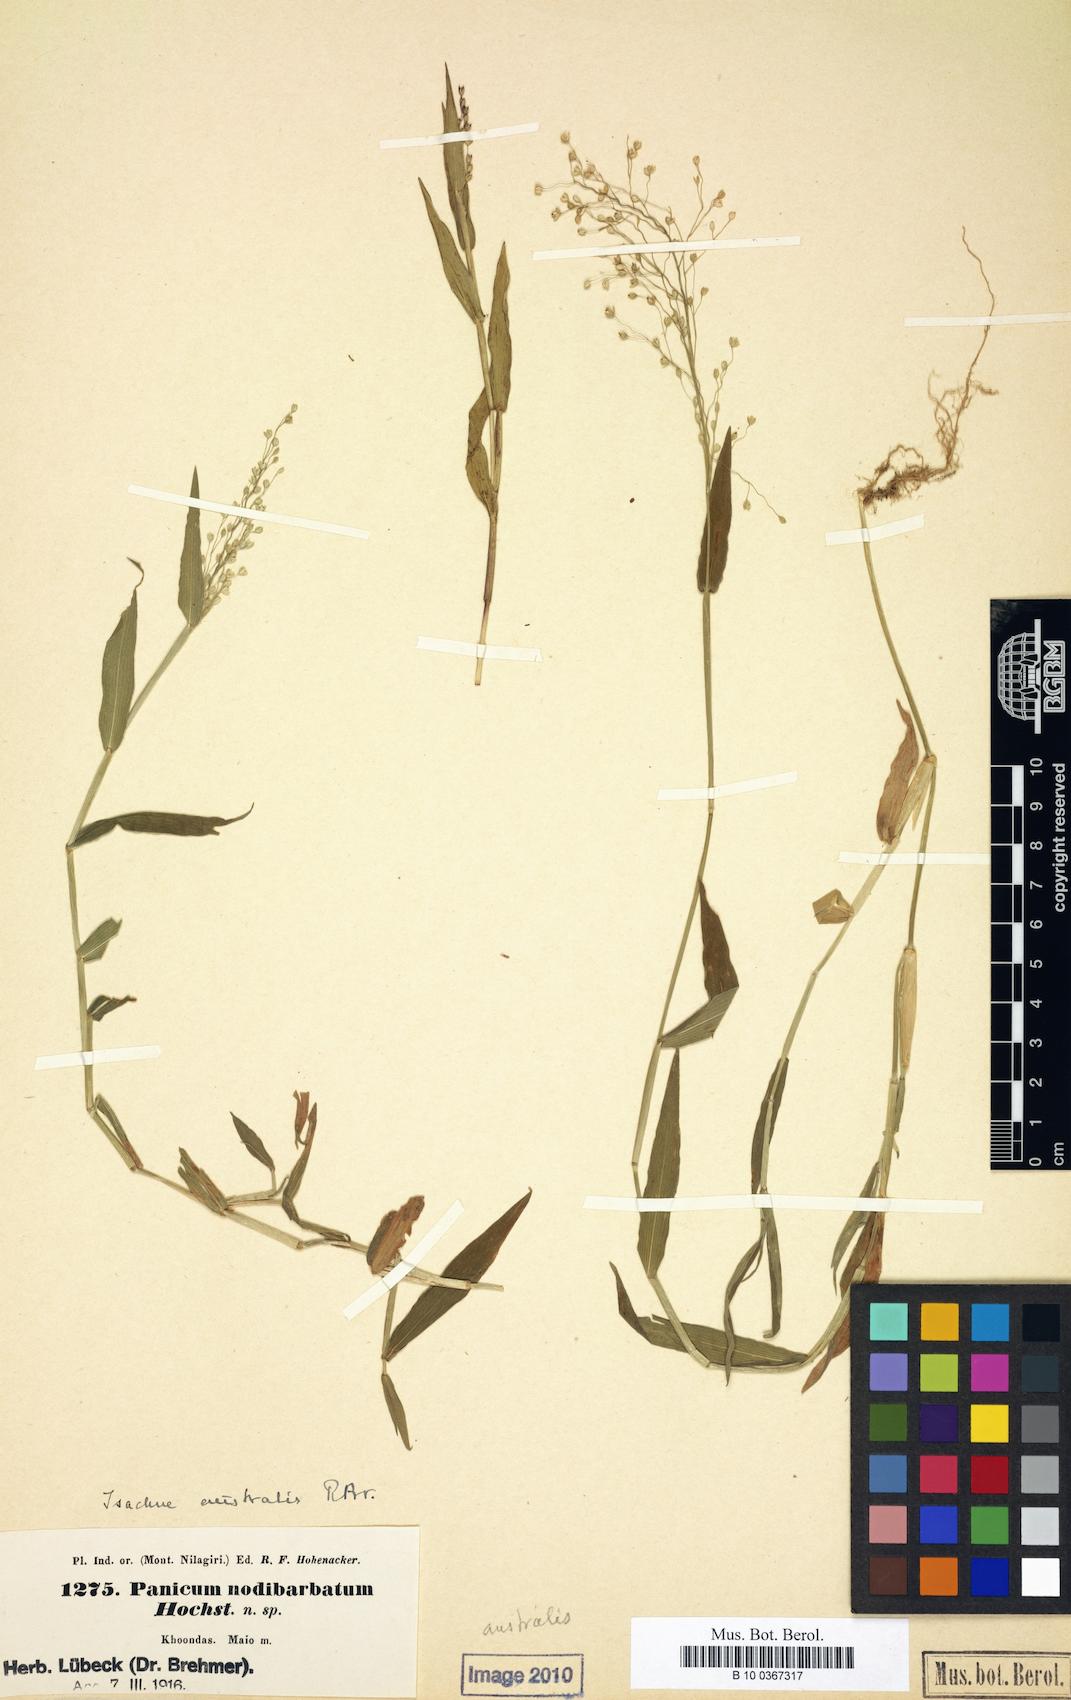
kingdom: Plantae
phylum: Tracheophyta
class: Liliopsida
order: Poales
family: Poaceae
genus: Isachne
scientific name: Isachne globosa
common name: Swamp millet
